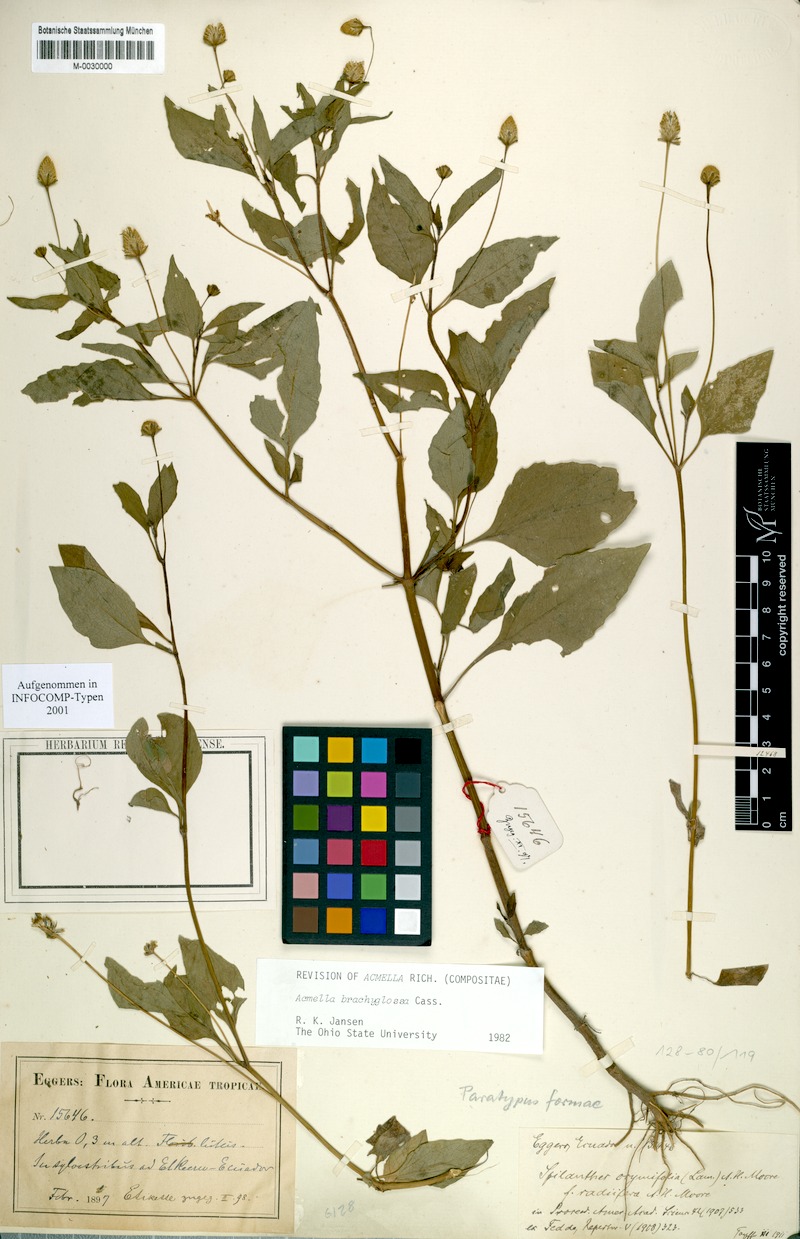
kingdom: Plantae
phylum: Tracheophyta
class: Magnoliopsida
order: Asterales
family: Asteraceae
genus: Acmella
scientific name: Acmella brachyglossa
